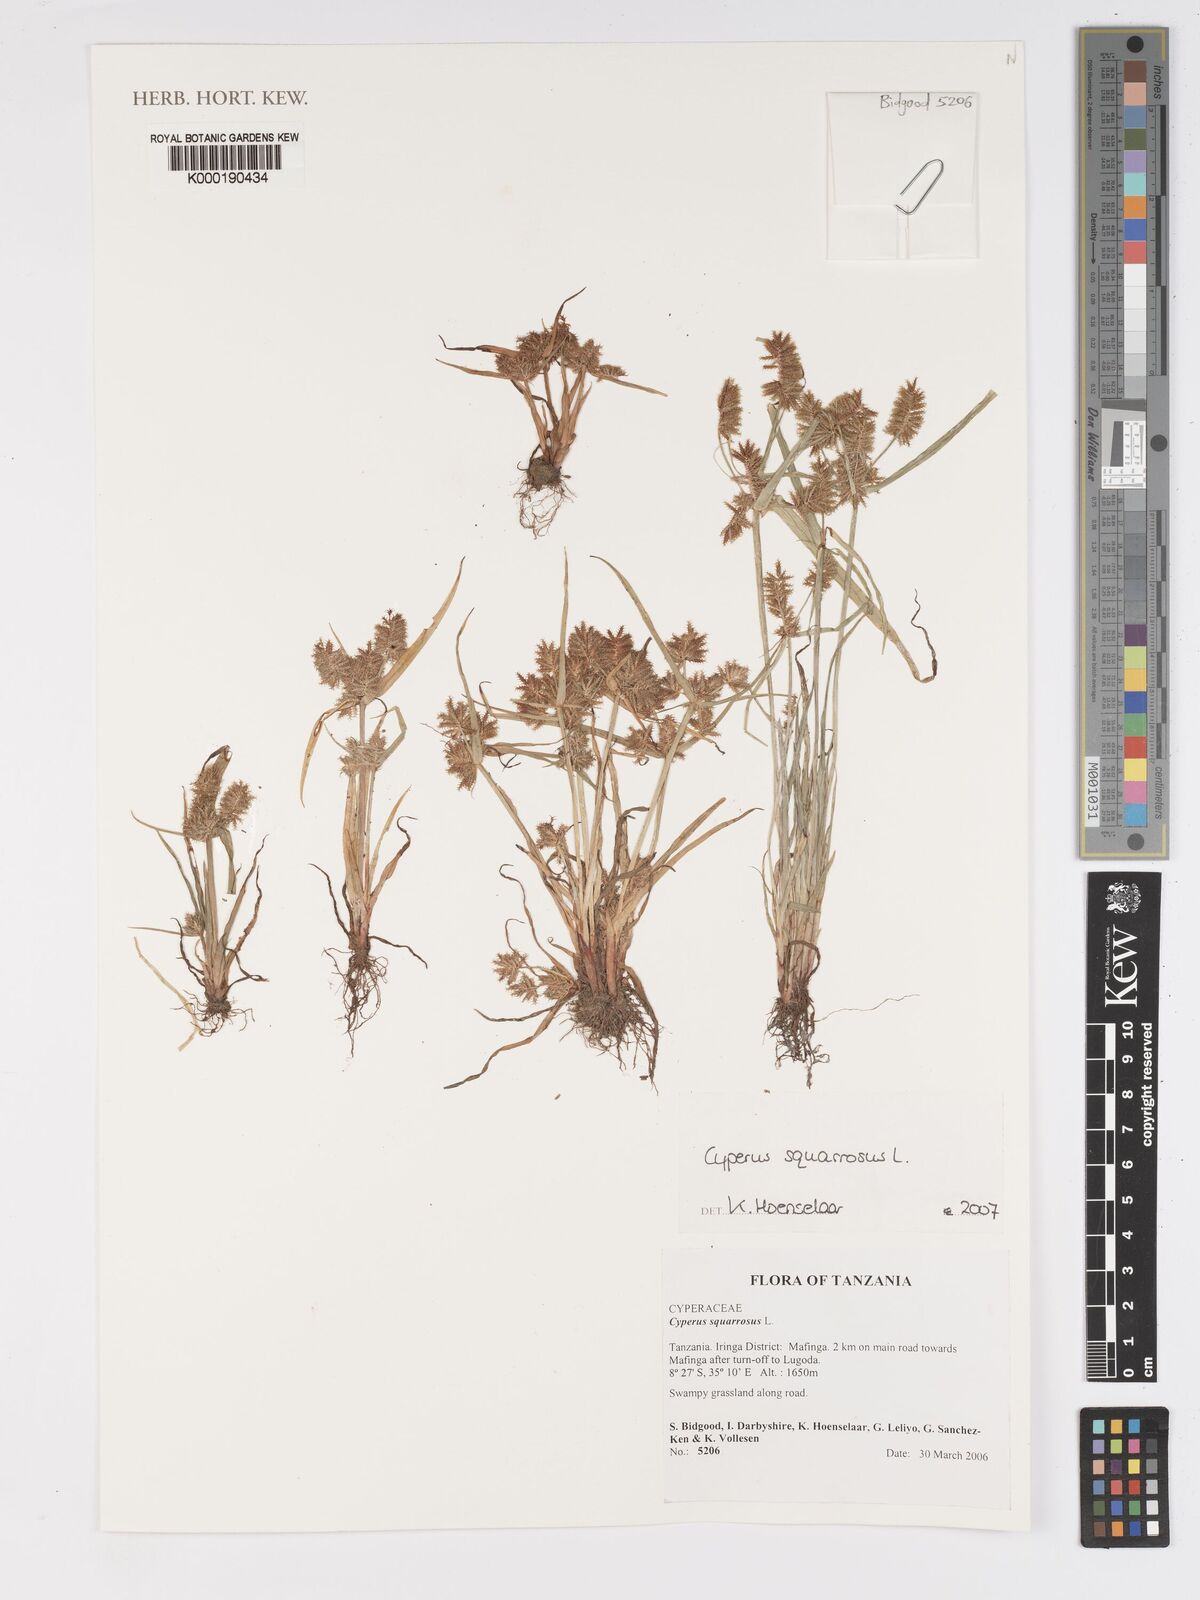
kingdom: Plantae
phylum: Tracheophyta
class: Liliopsida
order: Poales
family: Cyperaceae
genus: Cyperus
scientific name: Cyperus squarrosus
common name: Awned cyperus
